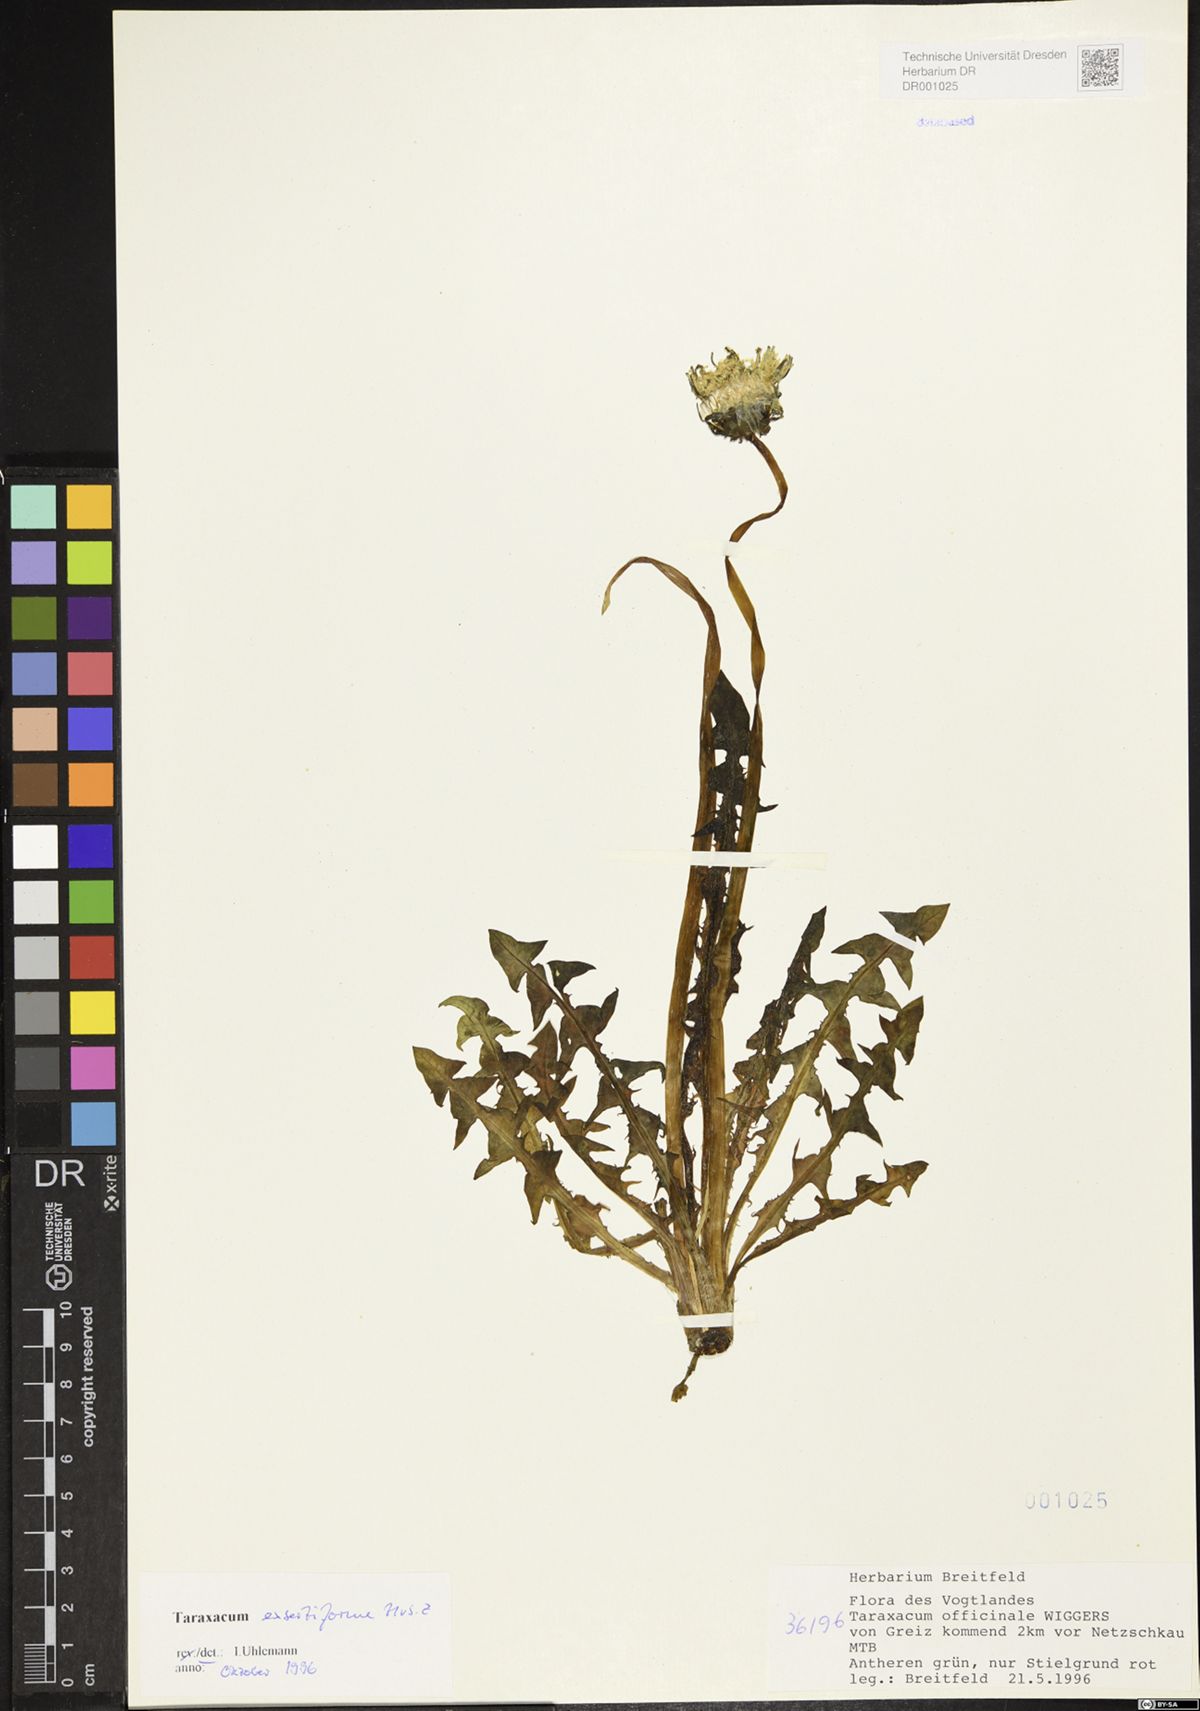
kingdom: Plantae
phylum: Tracheophyta
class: Magnoliopsida
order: Asterales
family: Asteraceae
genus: Taraxacum
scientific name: Taraxacum exsertiforme
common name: Erect-bracted dandelion
